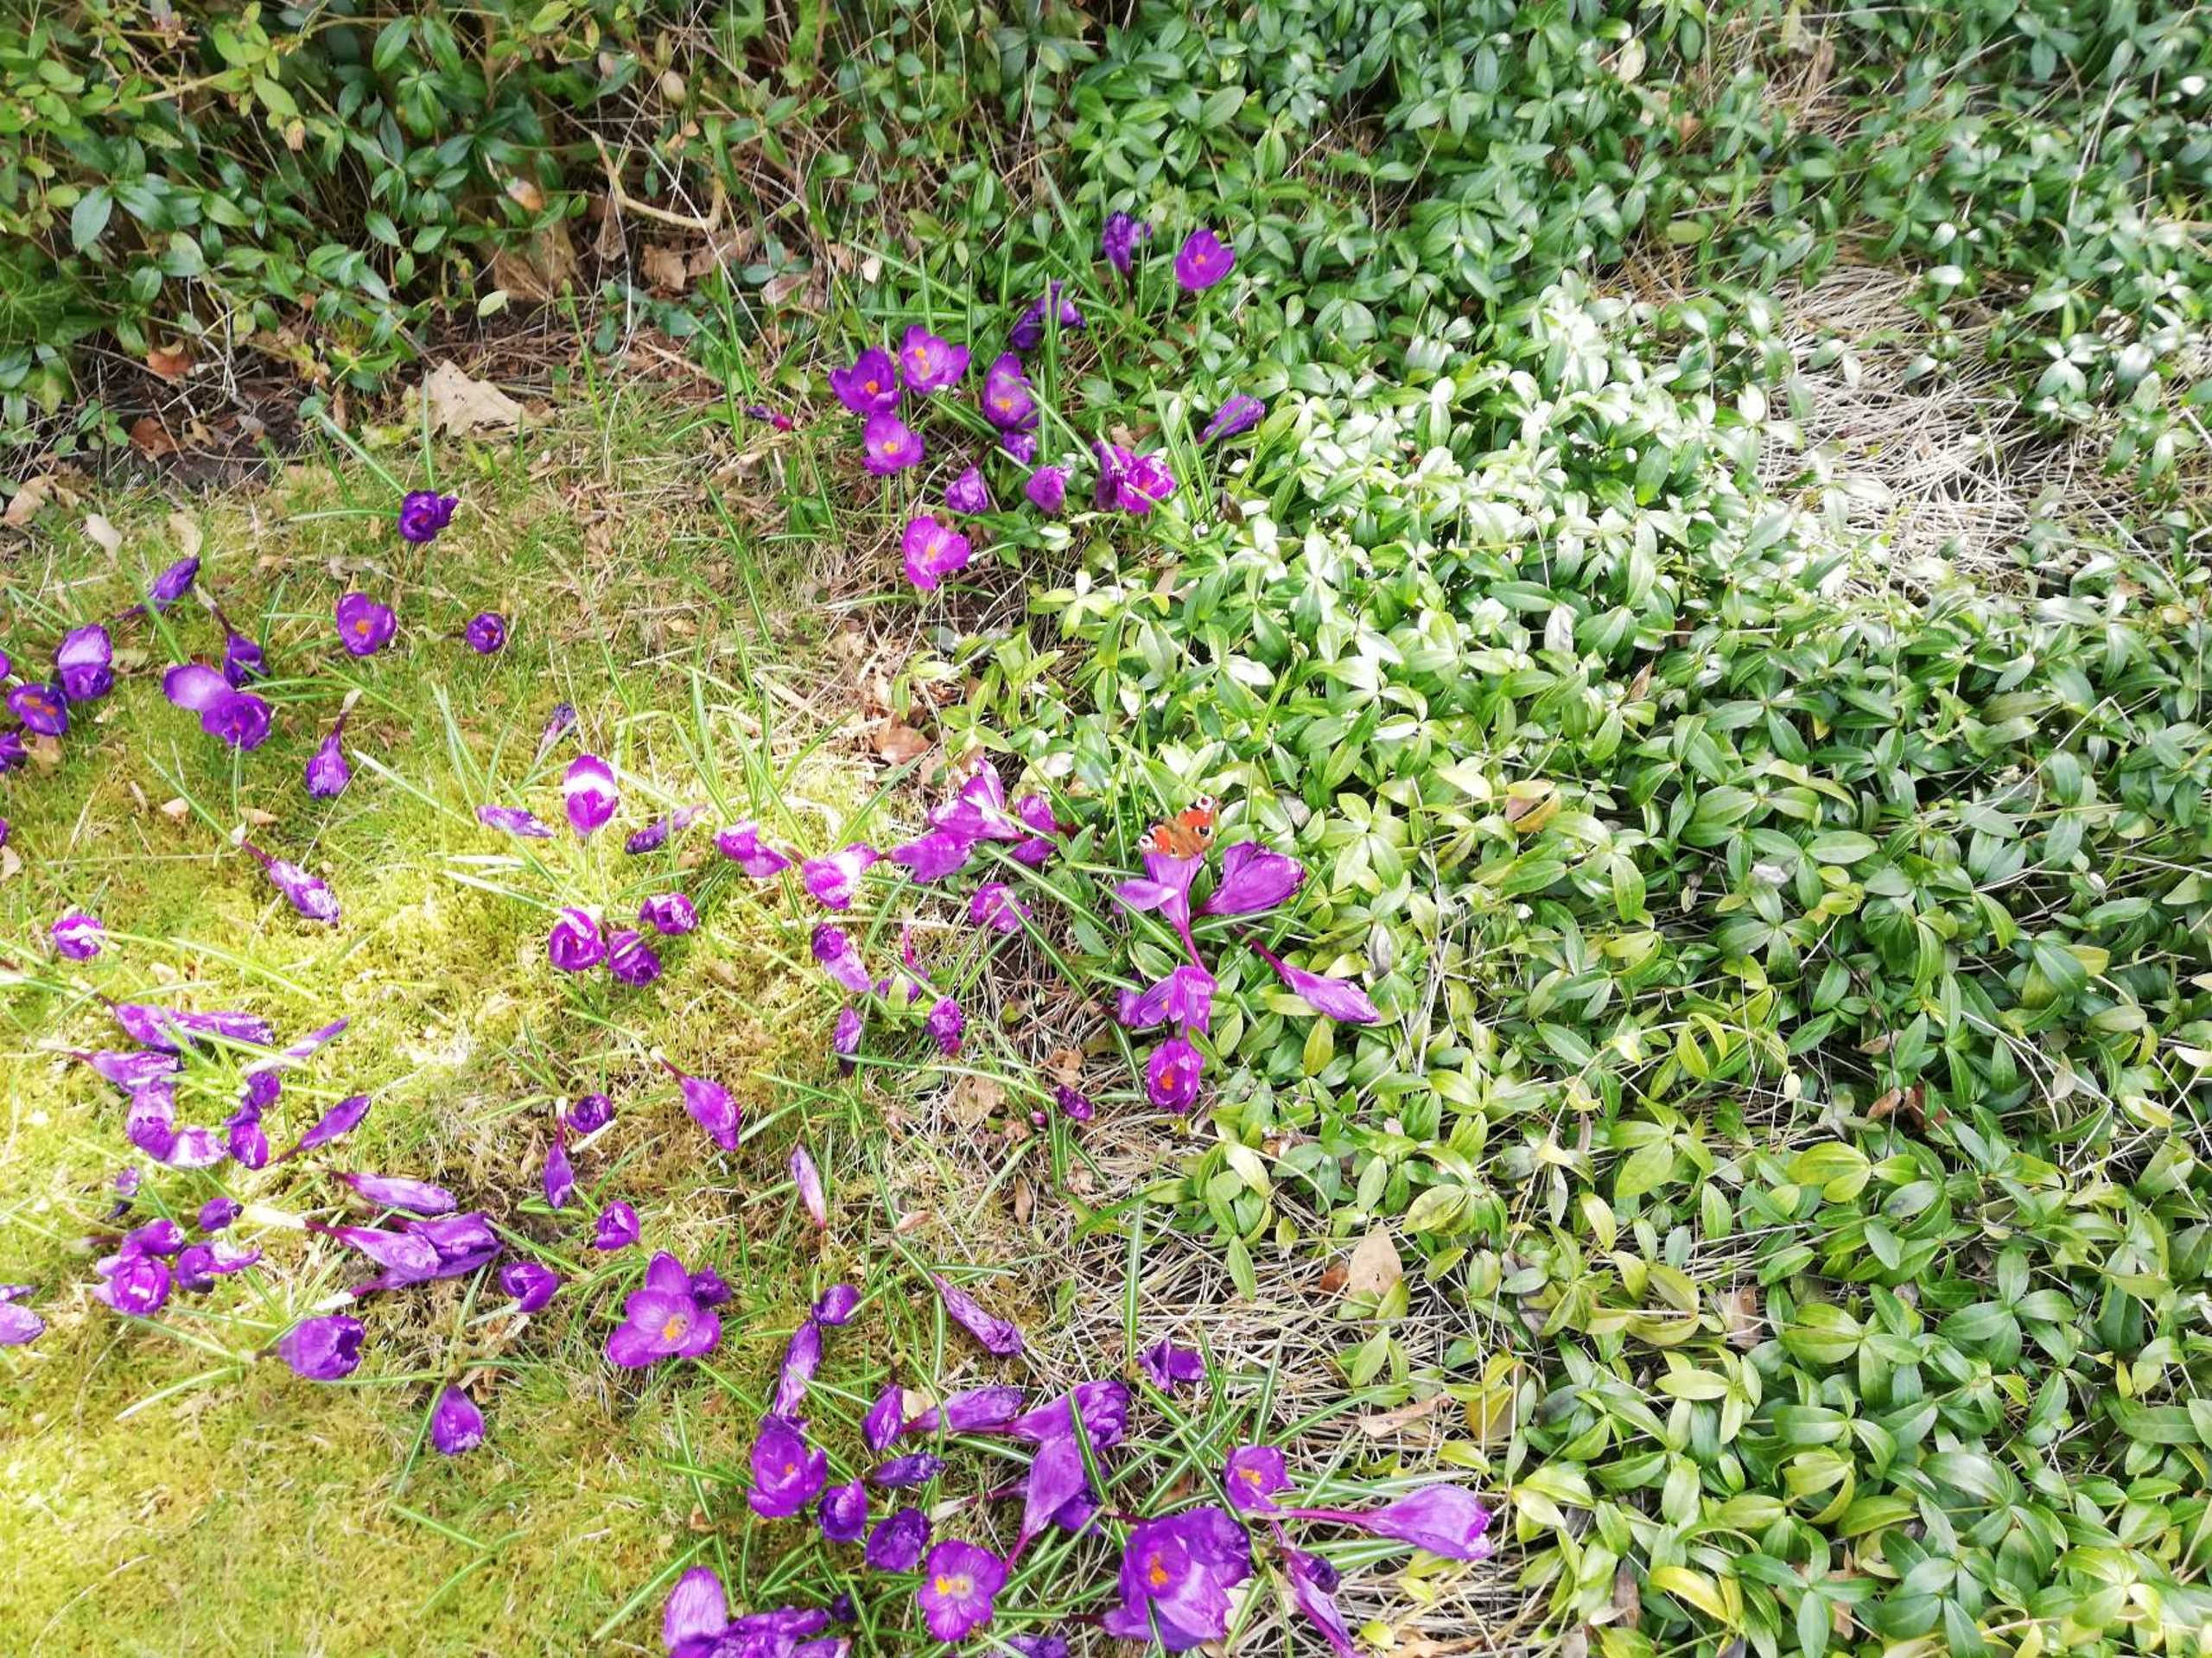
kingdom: Animalia
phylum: Arthropoda
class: Insecta
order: Lepidoptera
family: Nymphalidae
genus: Aglais
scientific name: Aglais io
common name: Dagpåfugleøje
